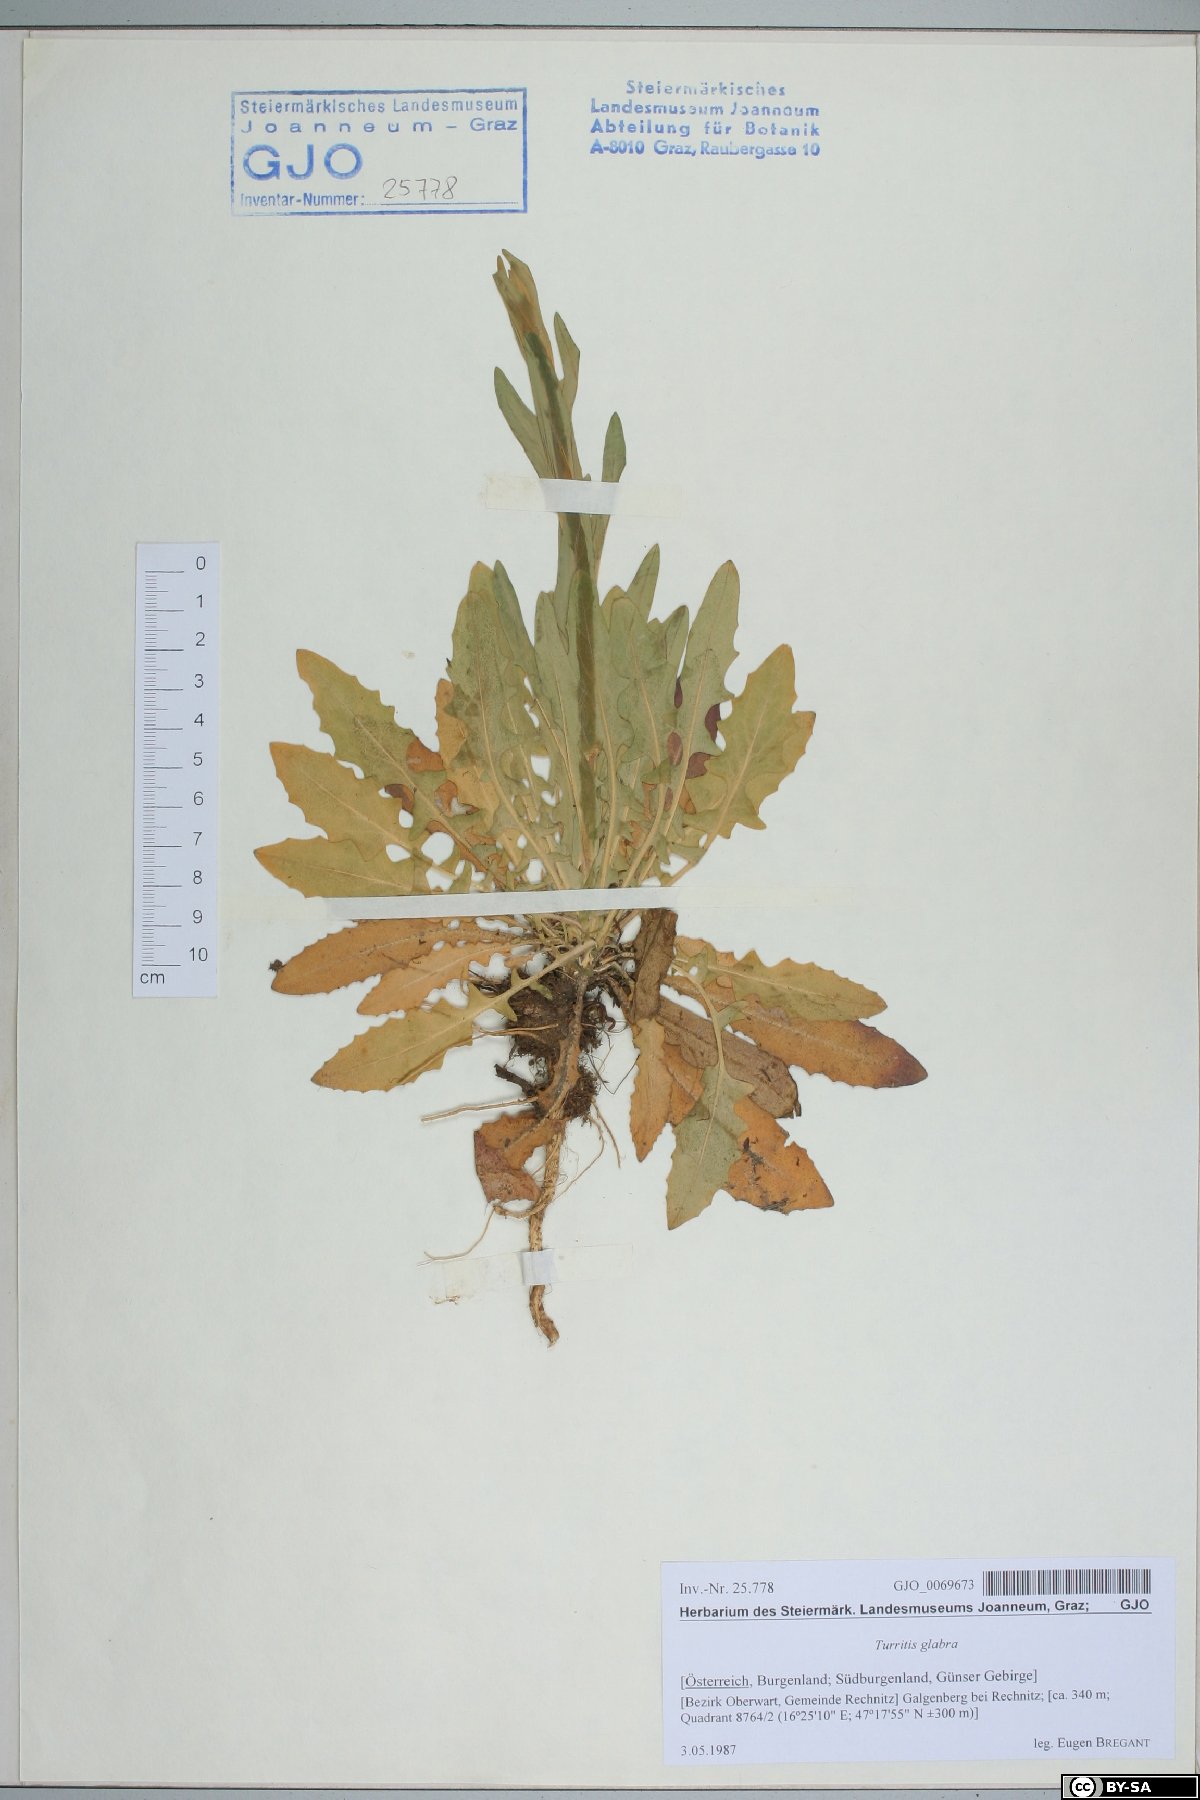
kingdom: Plantae
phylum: Tracheophyta
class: Magnoliopsida
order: Brassicales
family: Brassicaceae
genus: Turritis
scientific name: Turritis glabra
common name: Tower rockcress
